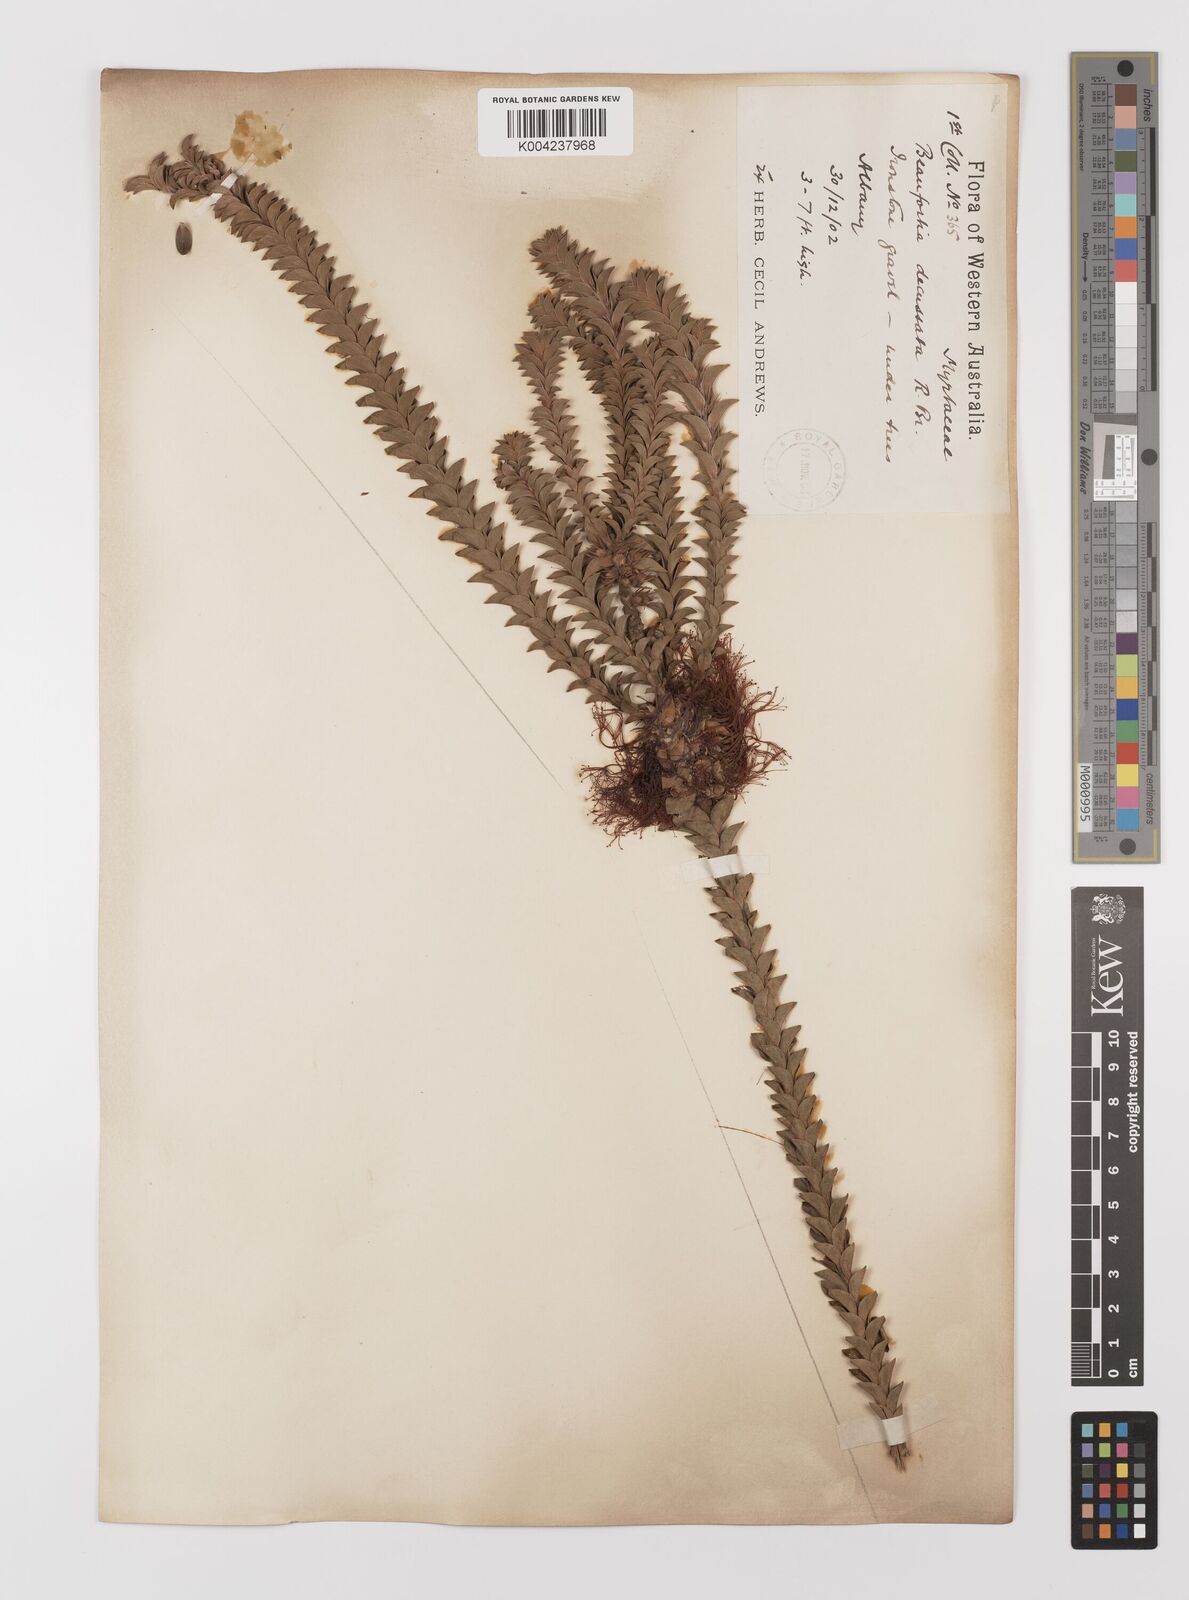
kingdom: Plantae
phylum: Tracheophyta
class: Magnoliopsida
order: Myrtales
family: Myrtaceae
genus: Melaleuca
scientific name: Melaleuca transversa
